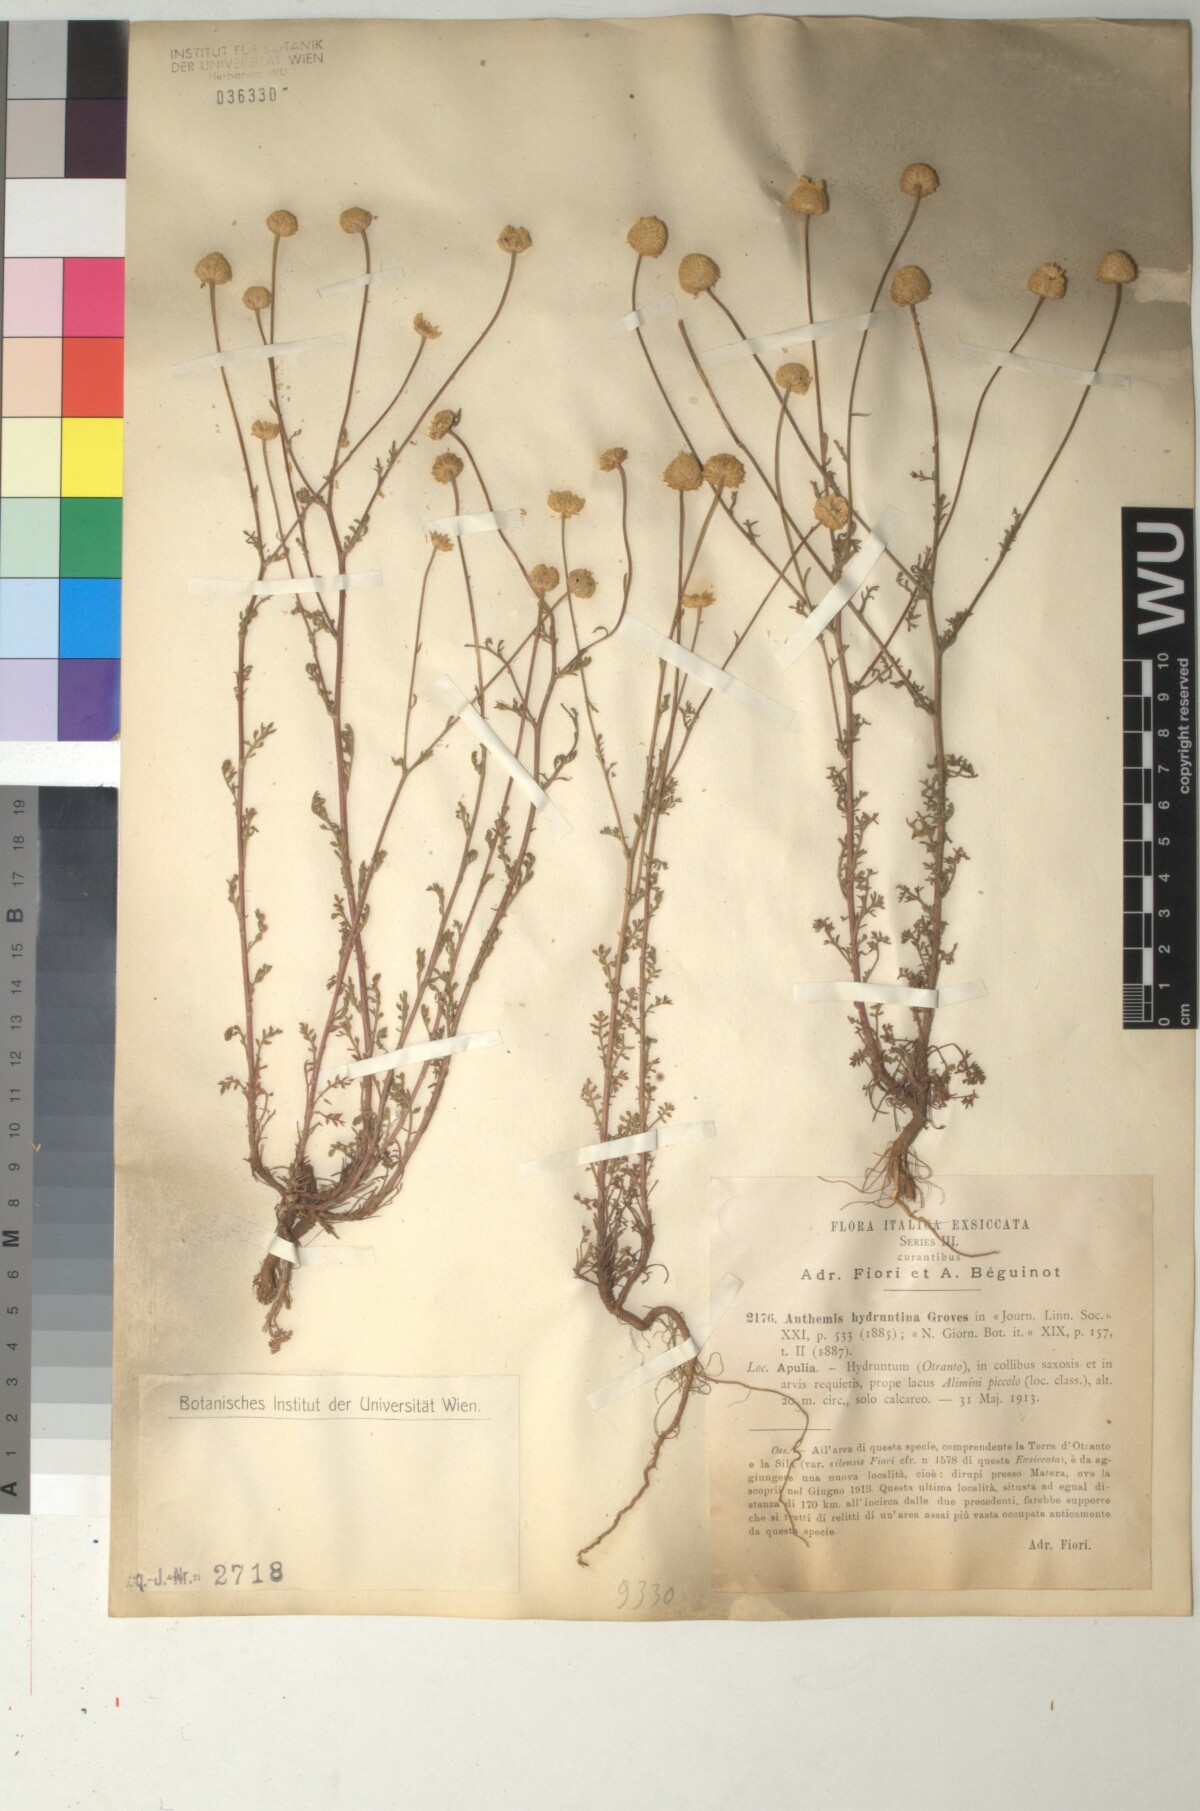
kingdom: Plantae
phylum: Tracheophyta
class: Magnoliopsida
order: Asterales
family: Asteraceae
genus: Anthemis
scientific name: Anthemis hydruntina
